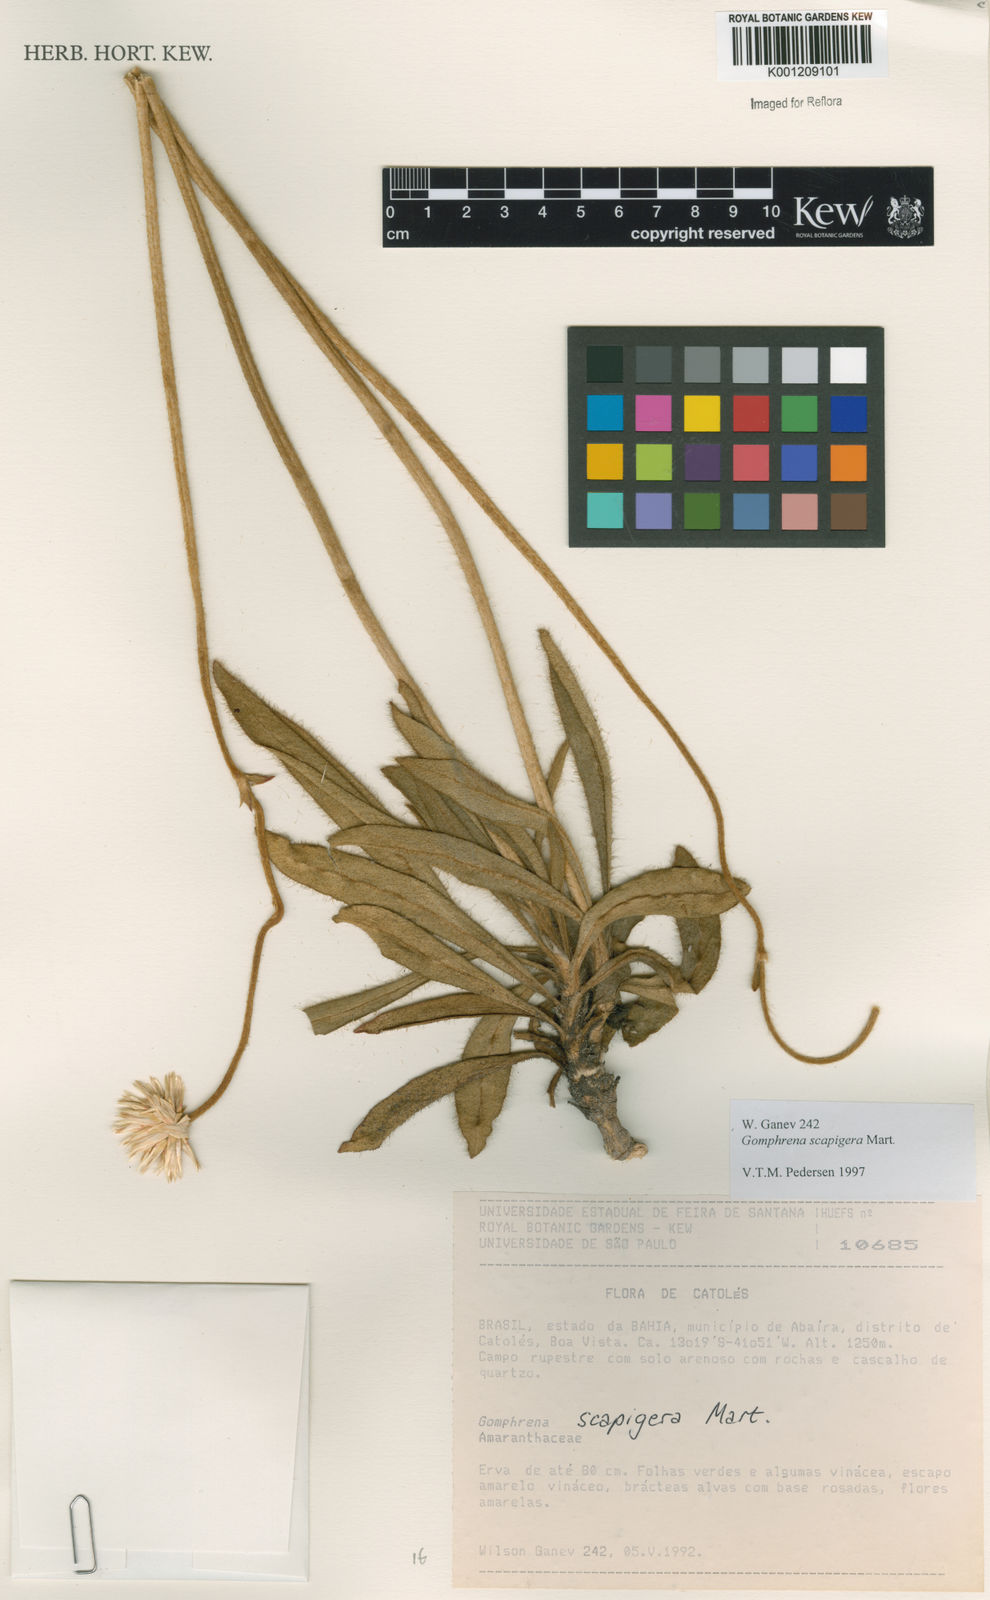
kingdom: Plantae
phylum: Tracheophyta
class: Magnoliopsida
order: Caryophyllales
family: Amaranthaceae
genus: Gomphrena
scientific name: Gomphrena scapigera
